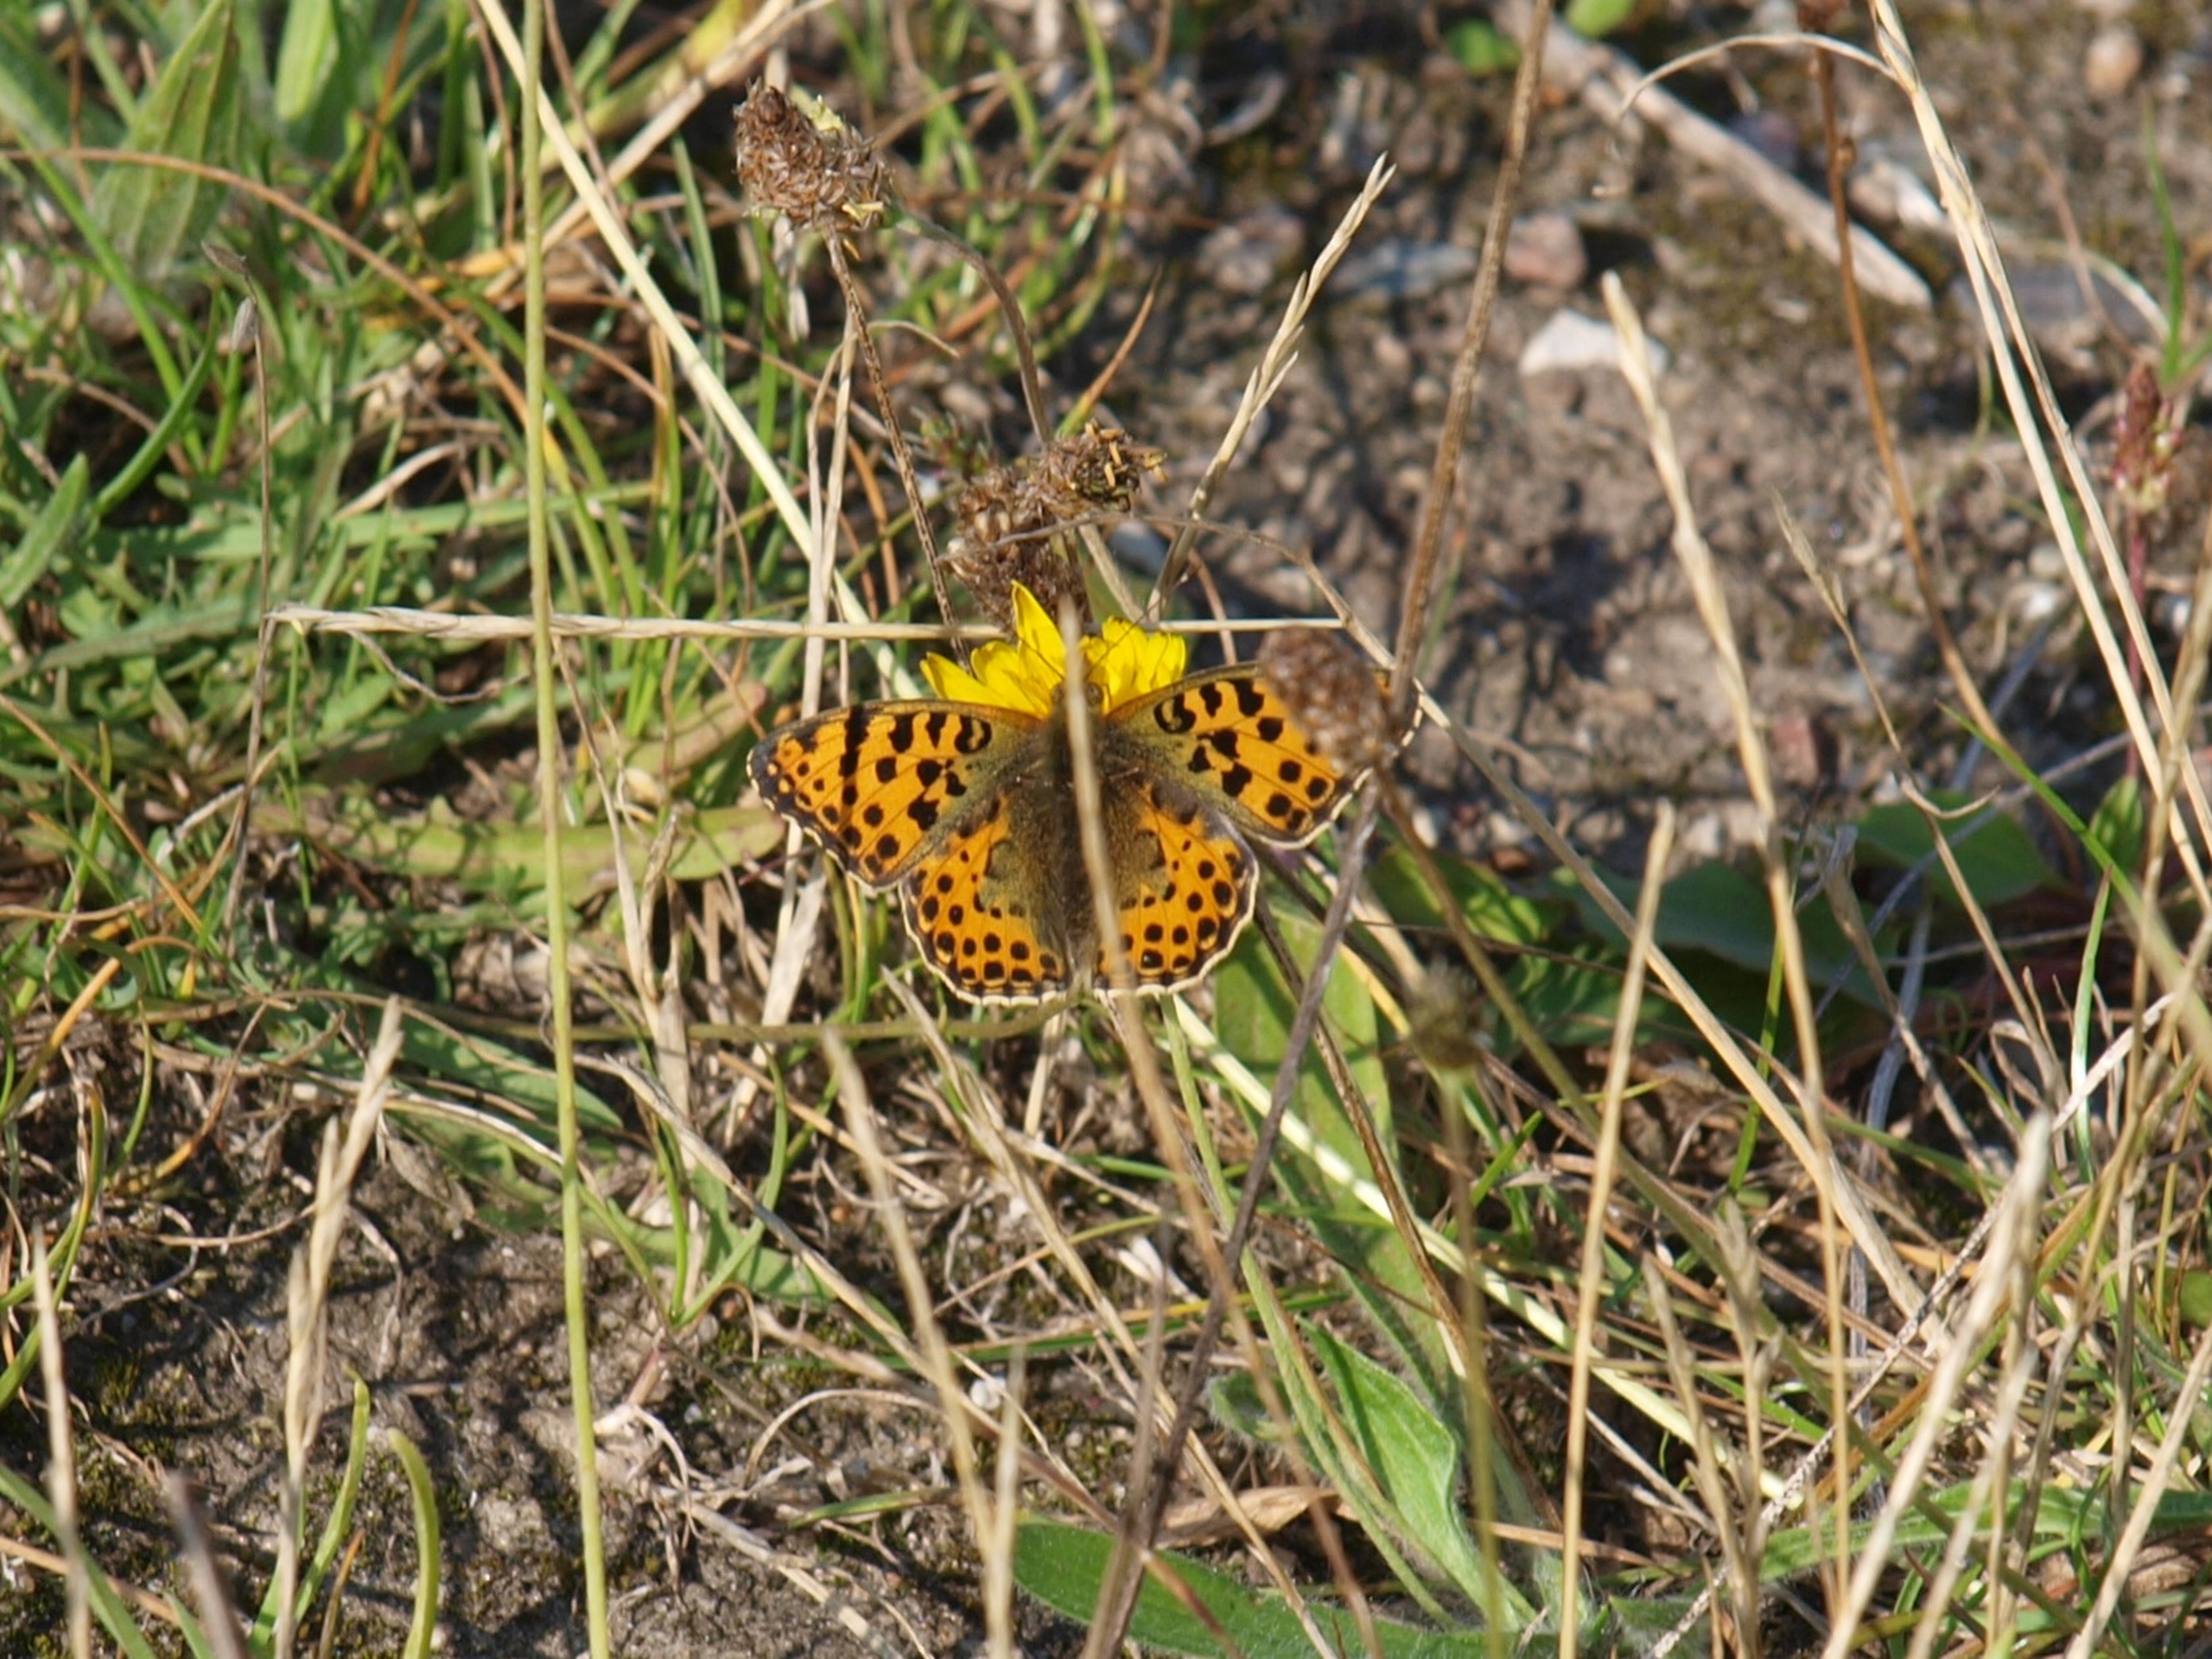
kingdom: Animalia
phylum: Arthropoda
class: Insecta
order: Lepidoptera
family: Nymphalidae
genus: Issoria
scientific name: Issoria lathonia
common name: Storplettet perlemorsommerfugl
